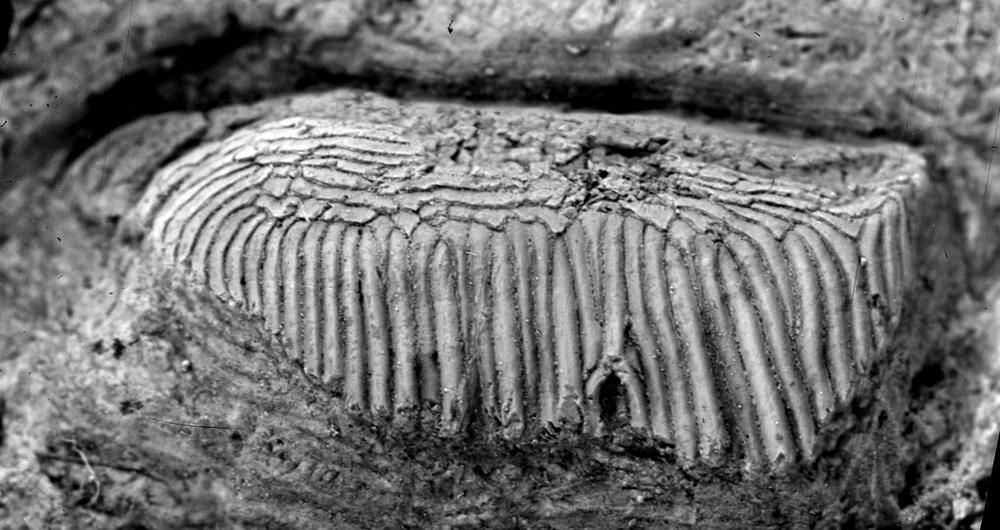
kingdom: Animalia
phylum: Chordata
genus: Archegonaspis
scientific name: Archegonaspis
